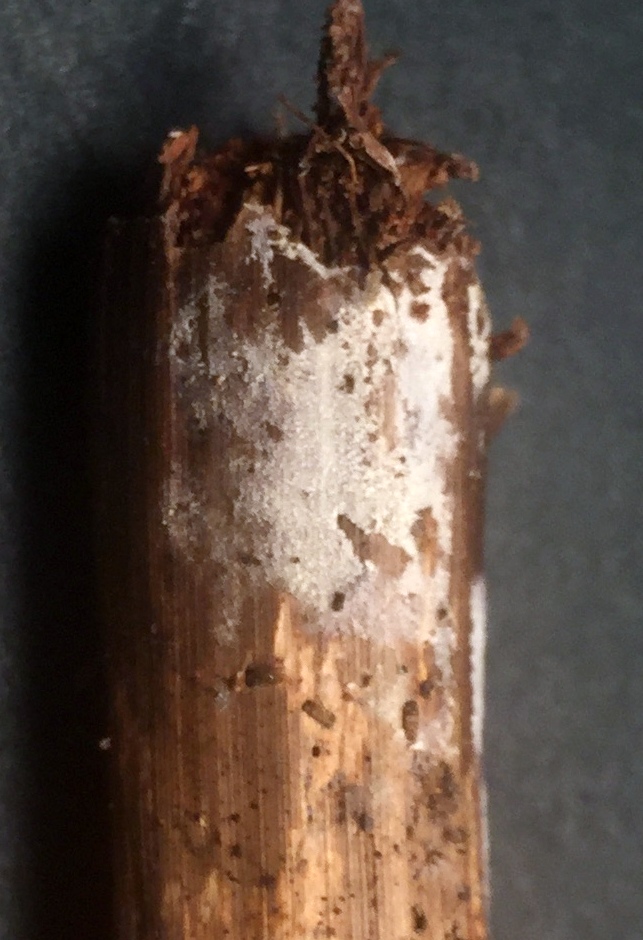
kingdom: Fungi
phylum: Basidiomycota
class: Agaricomycetes
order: Hymenochaetales
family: Schizoporaceae
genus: Xylodon
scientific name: Xylodon detriticus
